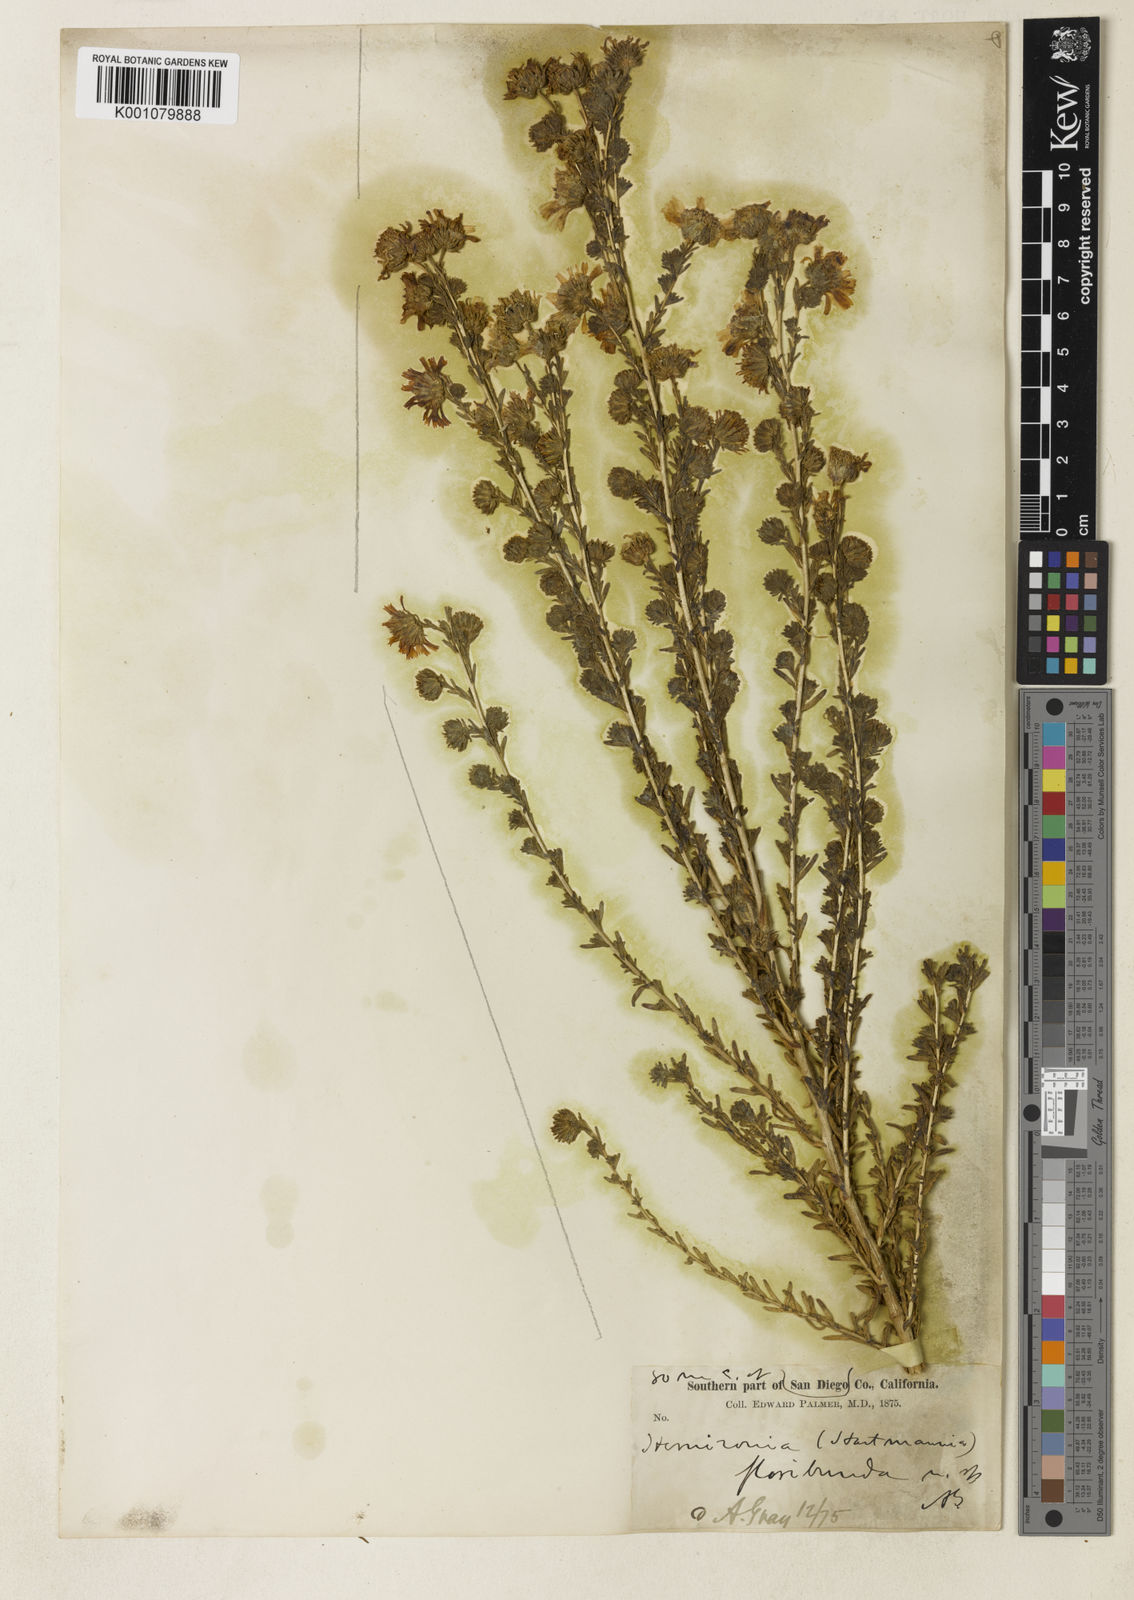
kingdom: Plantae
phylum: Tracheophyta
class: Magnoliopsida
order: Asterales
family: Asteraceae
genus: Deinandra
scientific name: Deinandra floribunda
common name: Tecate tarweed
